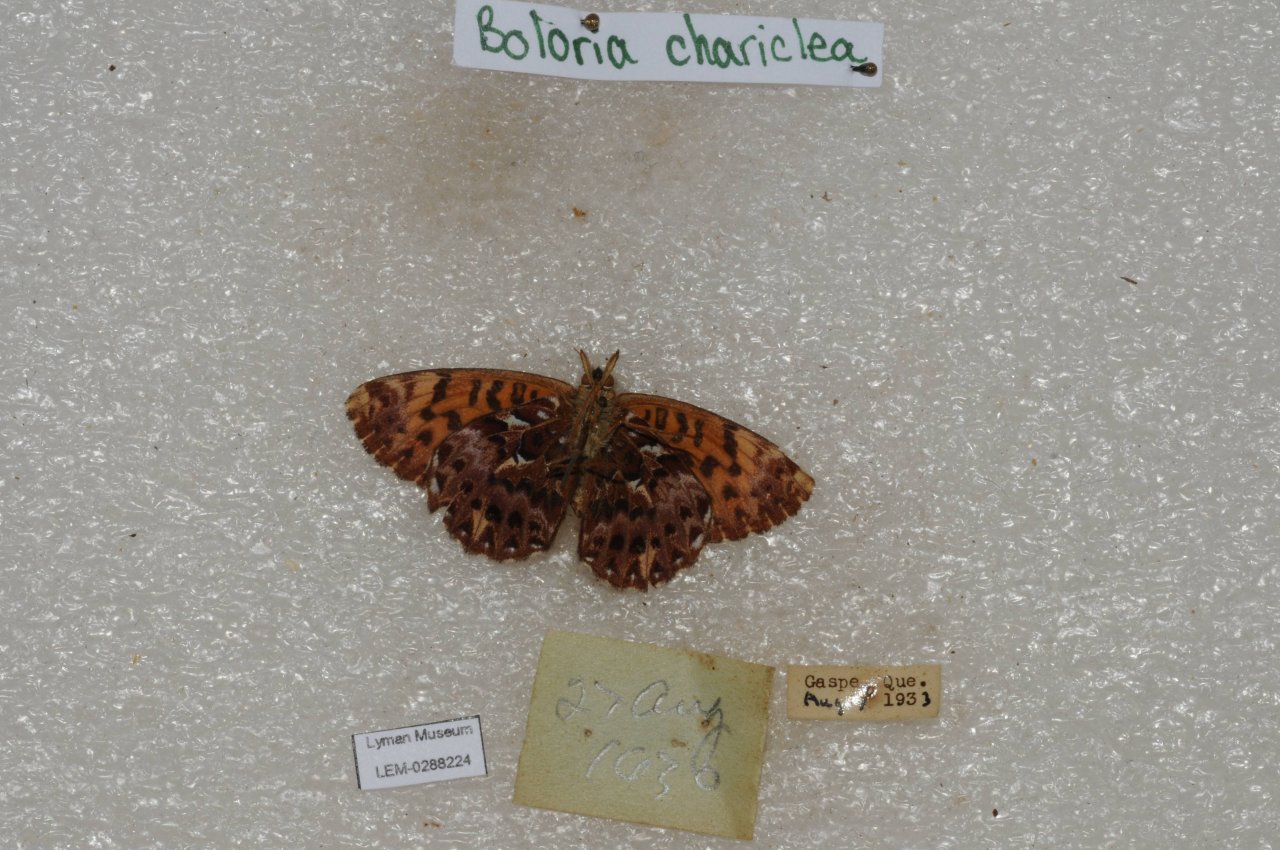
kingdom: Animalia
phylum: Arthropoda
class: Insecta
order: Lepidoptera
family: Nymphalidae
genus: Boloria
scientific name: Boloria chariclea
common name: Arctic Fritillary
